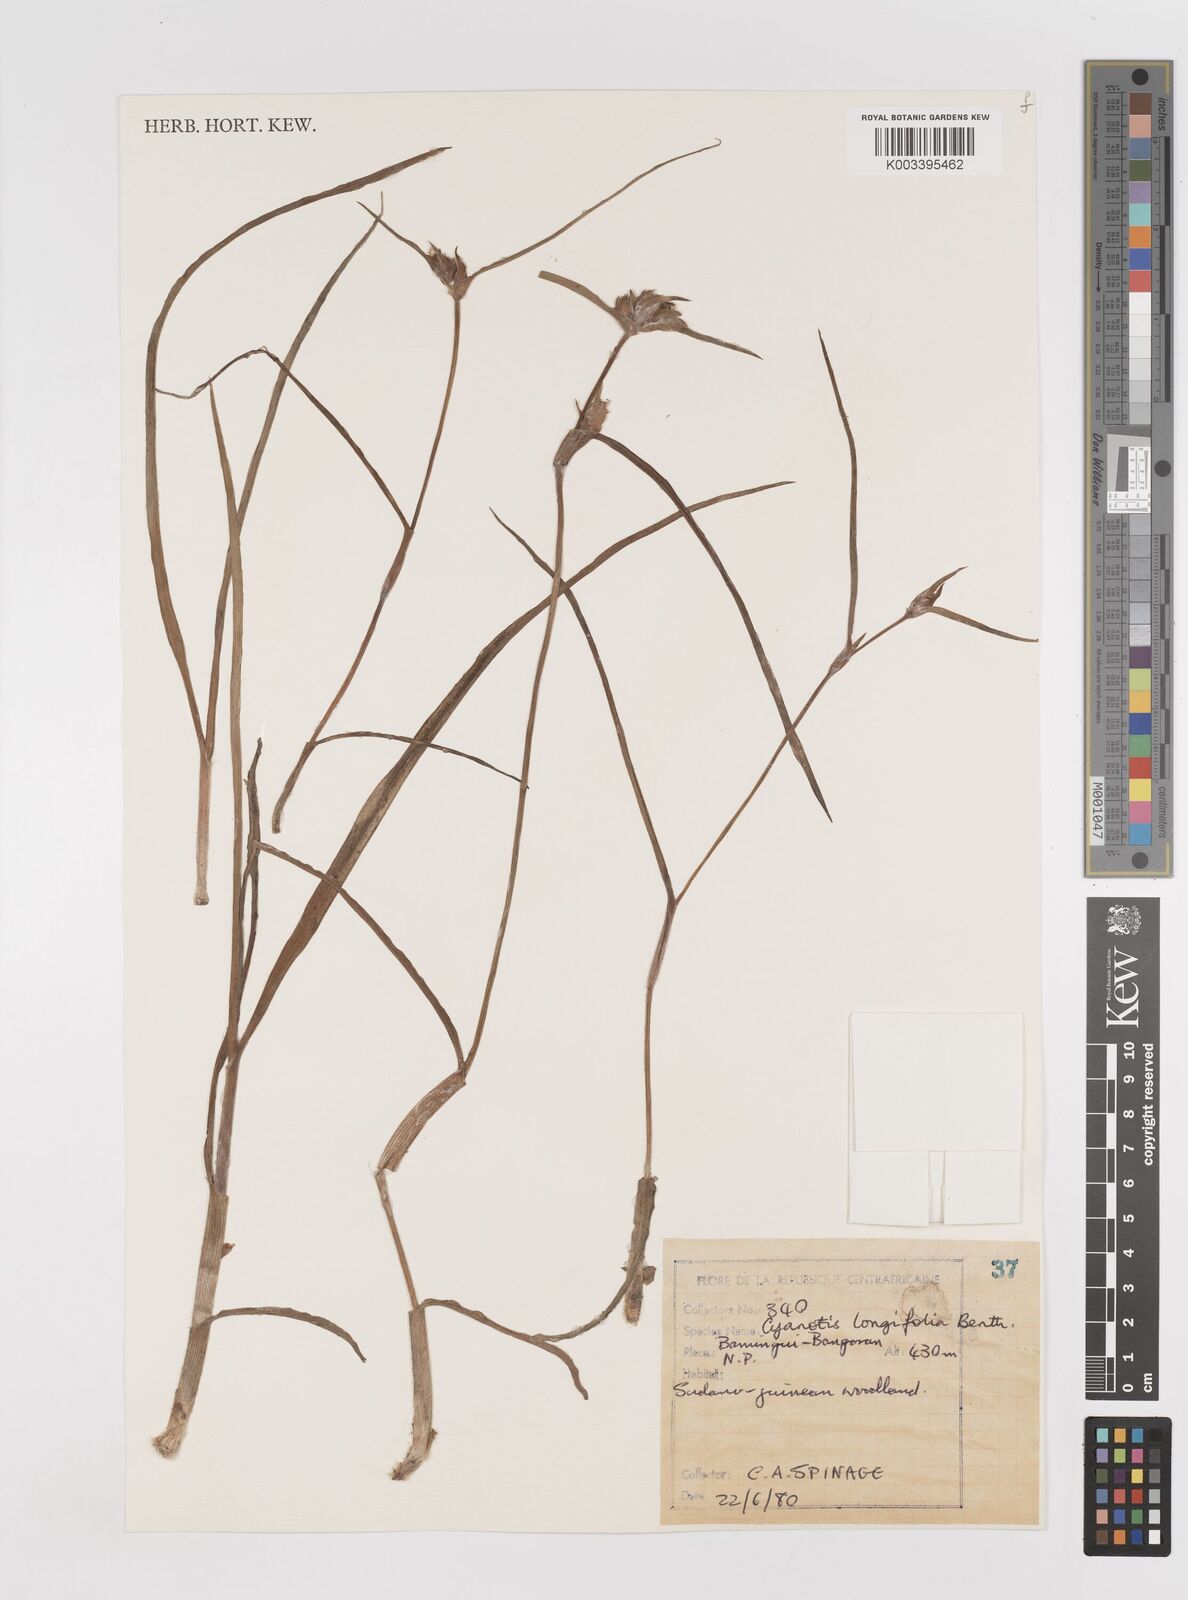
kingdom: Plantae
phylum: Tracheophyta
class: Liliopsida
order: Commelinales
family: Commelinaceae
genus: Cyanotis
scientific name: Cyanotis longifolia
